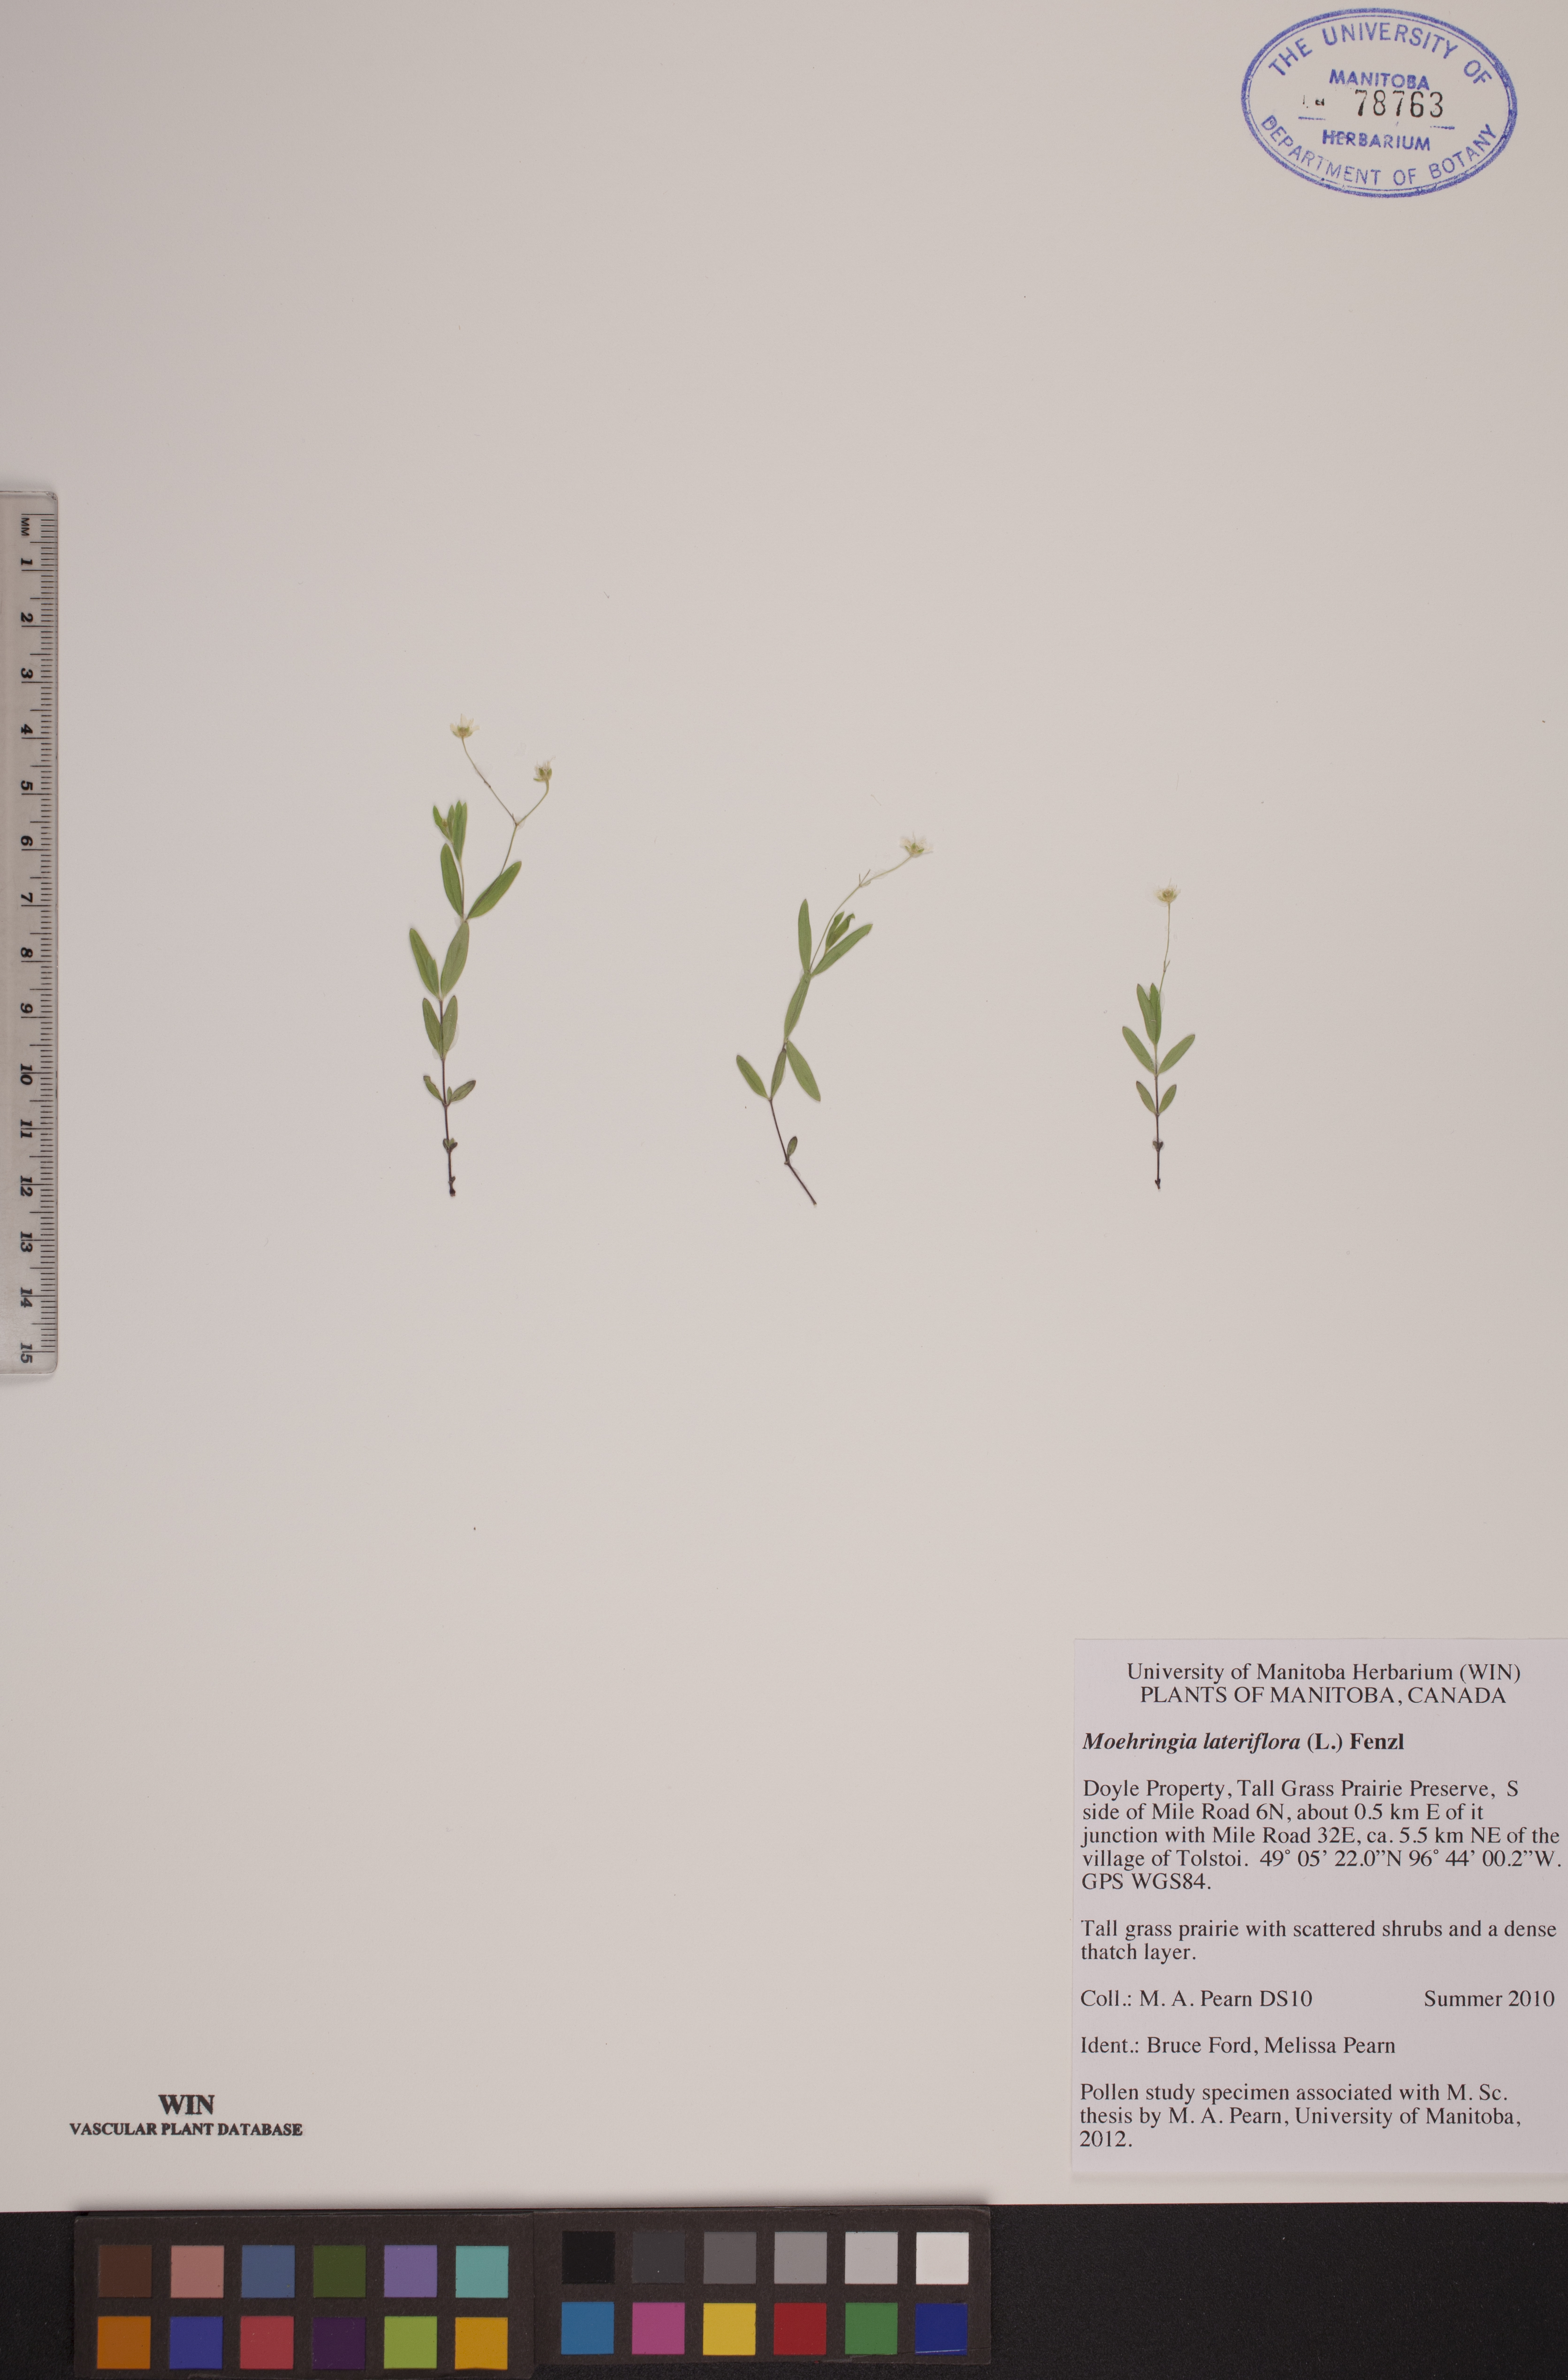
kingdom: Plantae
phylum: Tracheophyta
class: Magnoliopsida
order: Caryophyllales
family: Caryophyllaceae
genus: Moehringia
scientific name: Moehringia lateriflora
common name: Blunt-leaved sandwort
